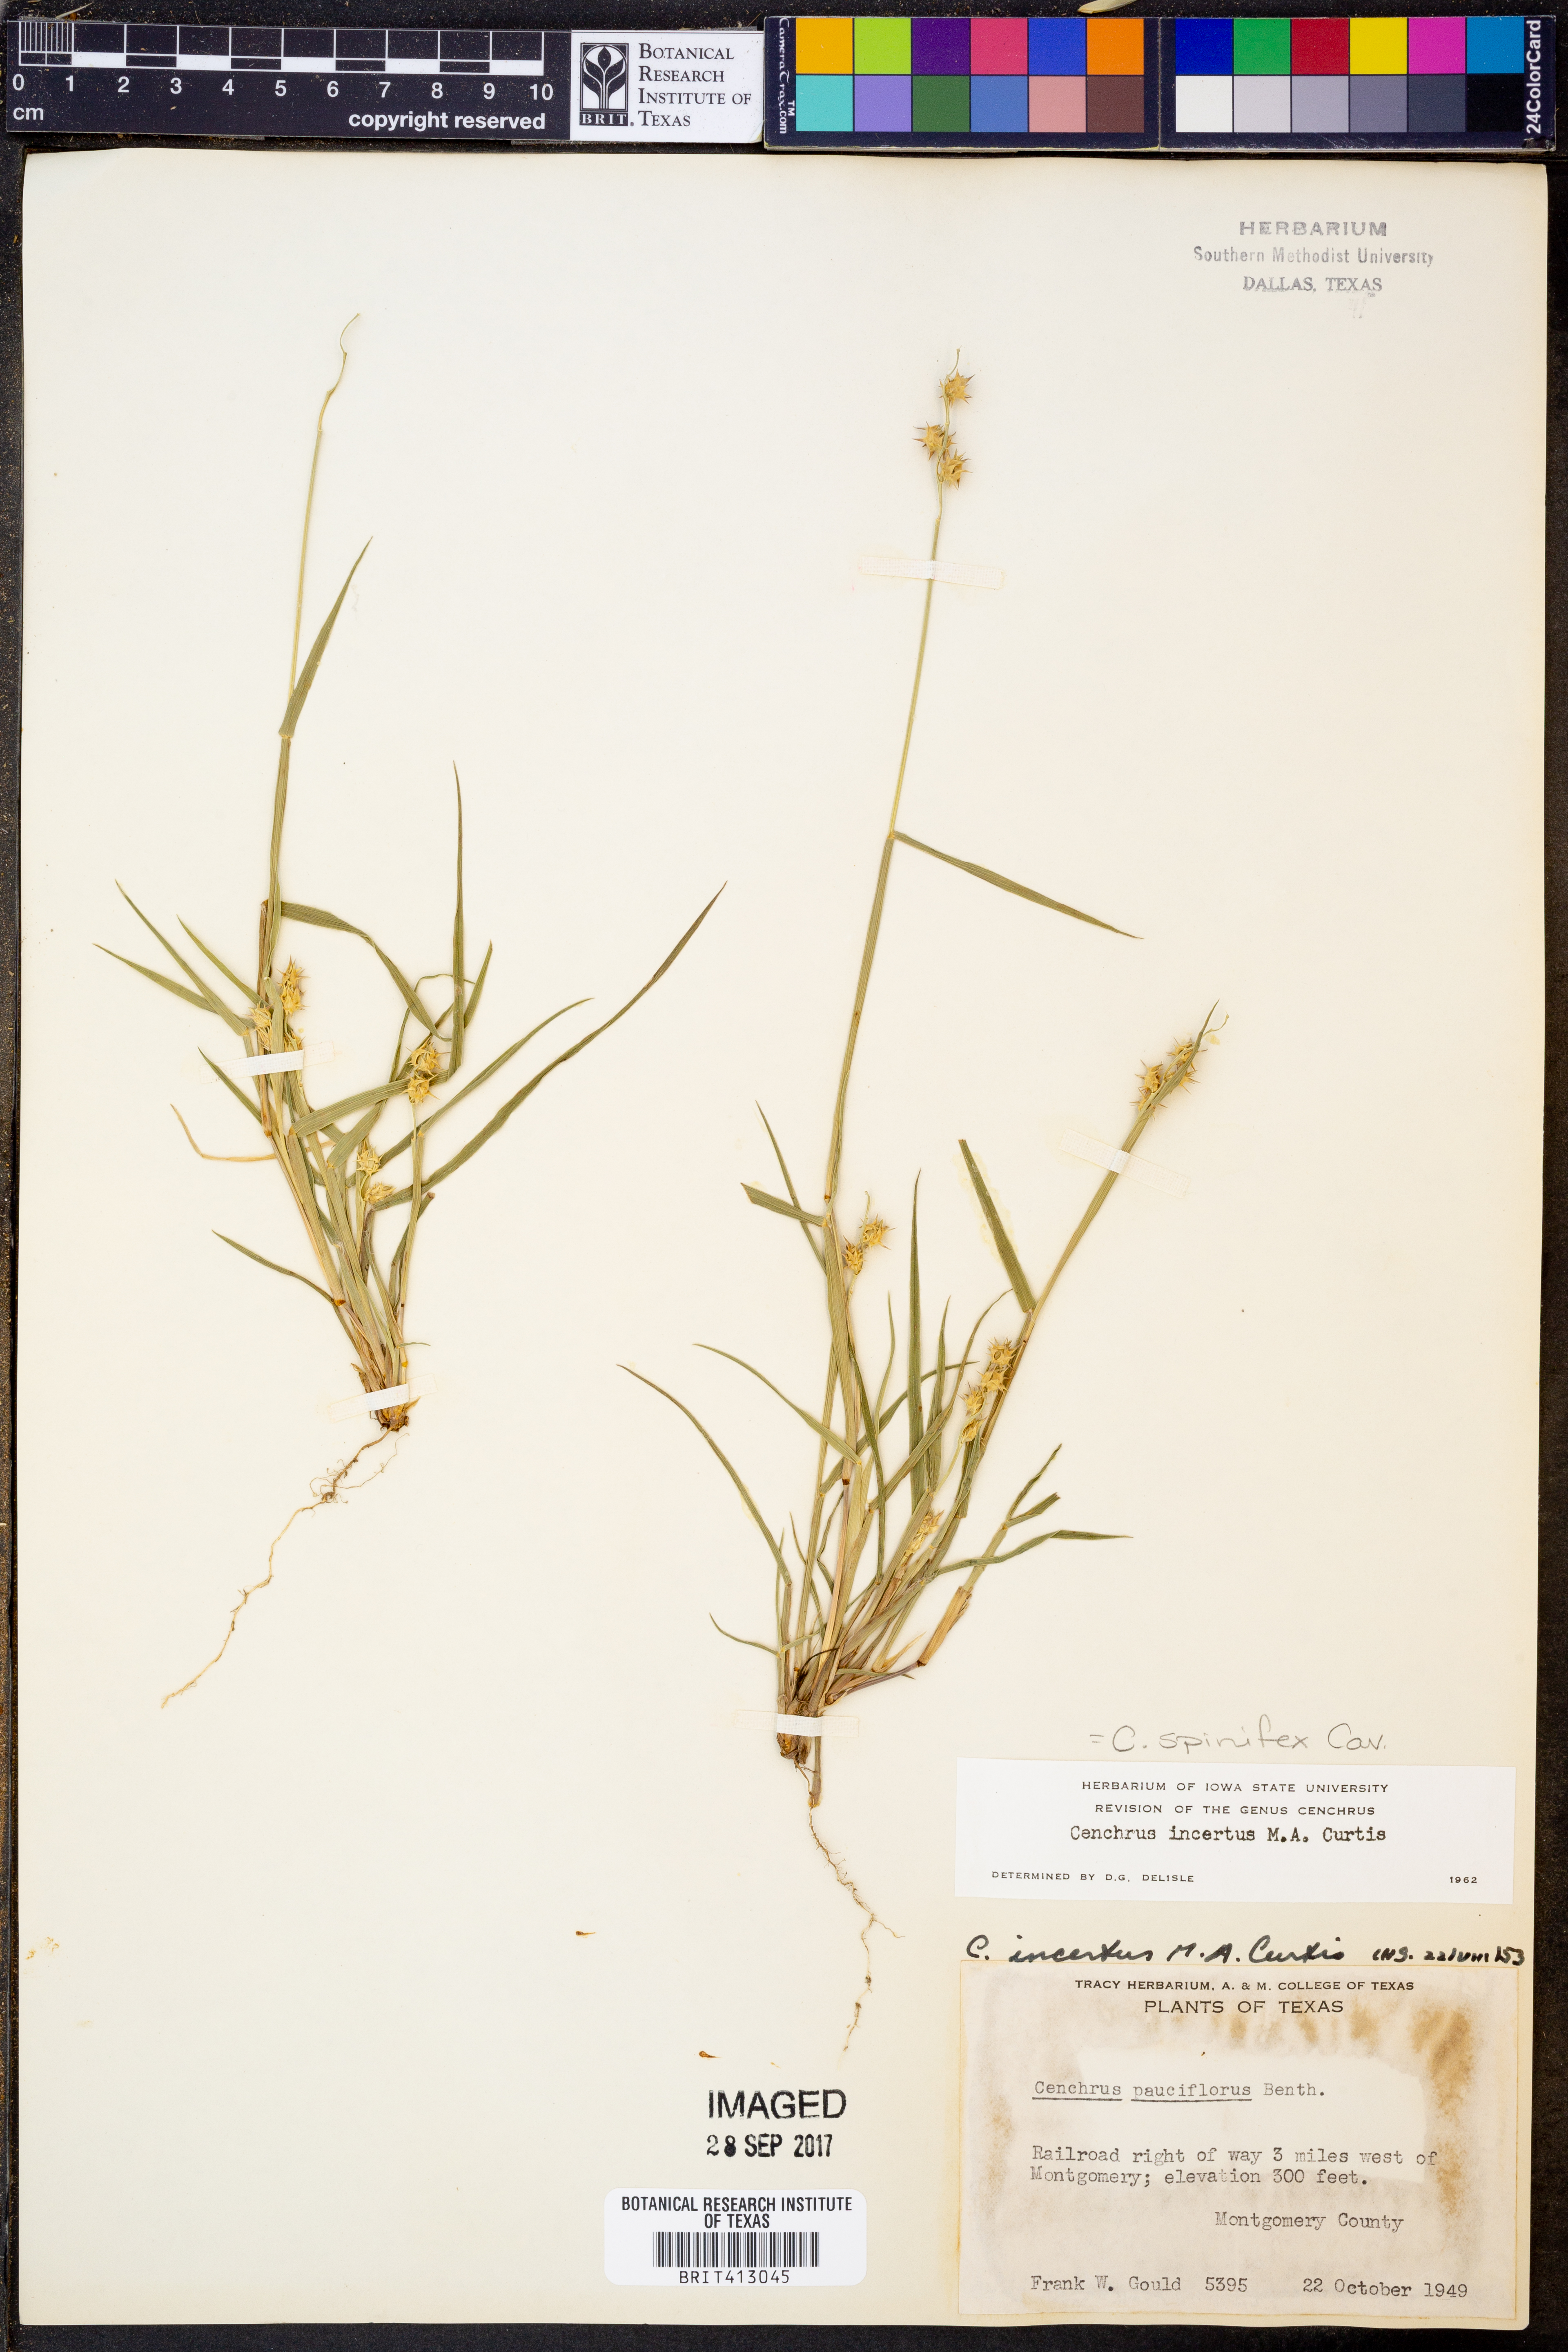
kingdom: Plantae
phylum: Tracheophyta
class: Liliopsida
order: Poales
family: Poaceae
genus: Cenchrus
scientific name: Cenchrus spinifex
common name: Coast sandbur
